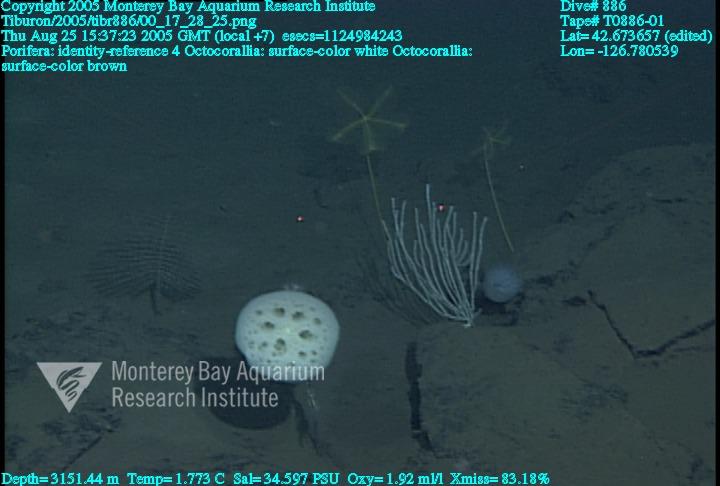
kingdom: Animalia
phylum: Porifera
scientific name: Porifera
